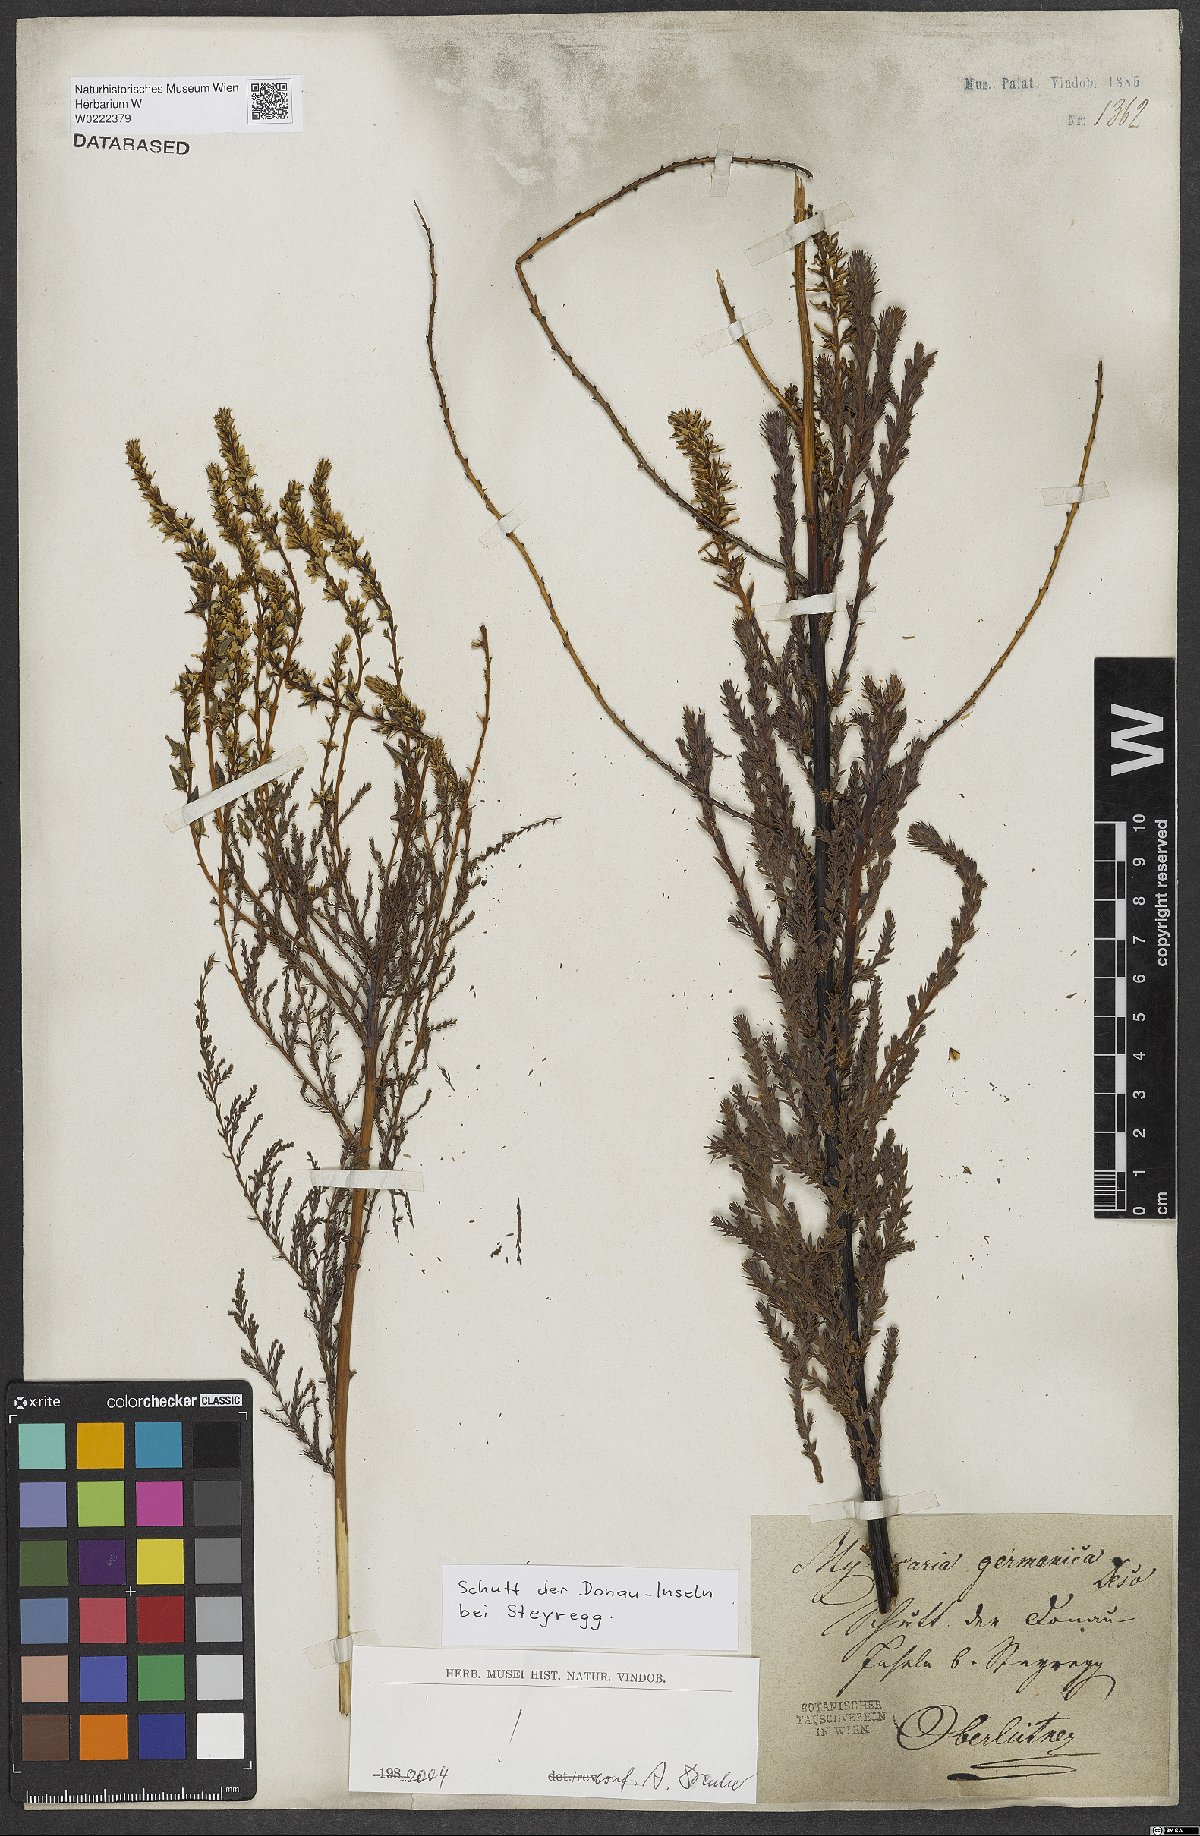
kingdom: Plantae
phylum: Tracheophyta
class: Magnoliopsida
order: Caryophyllales
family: Tamaricaceae
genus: Myricaria
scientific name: Myricaria germanica
